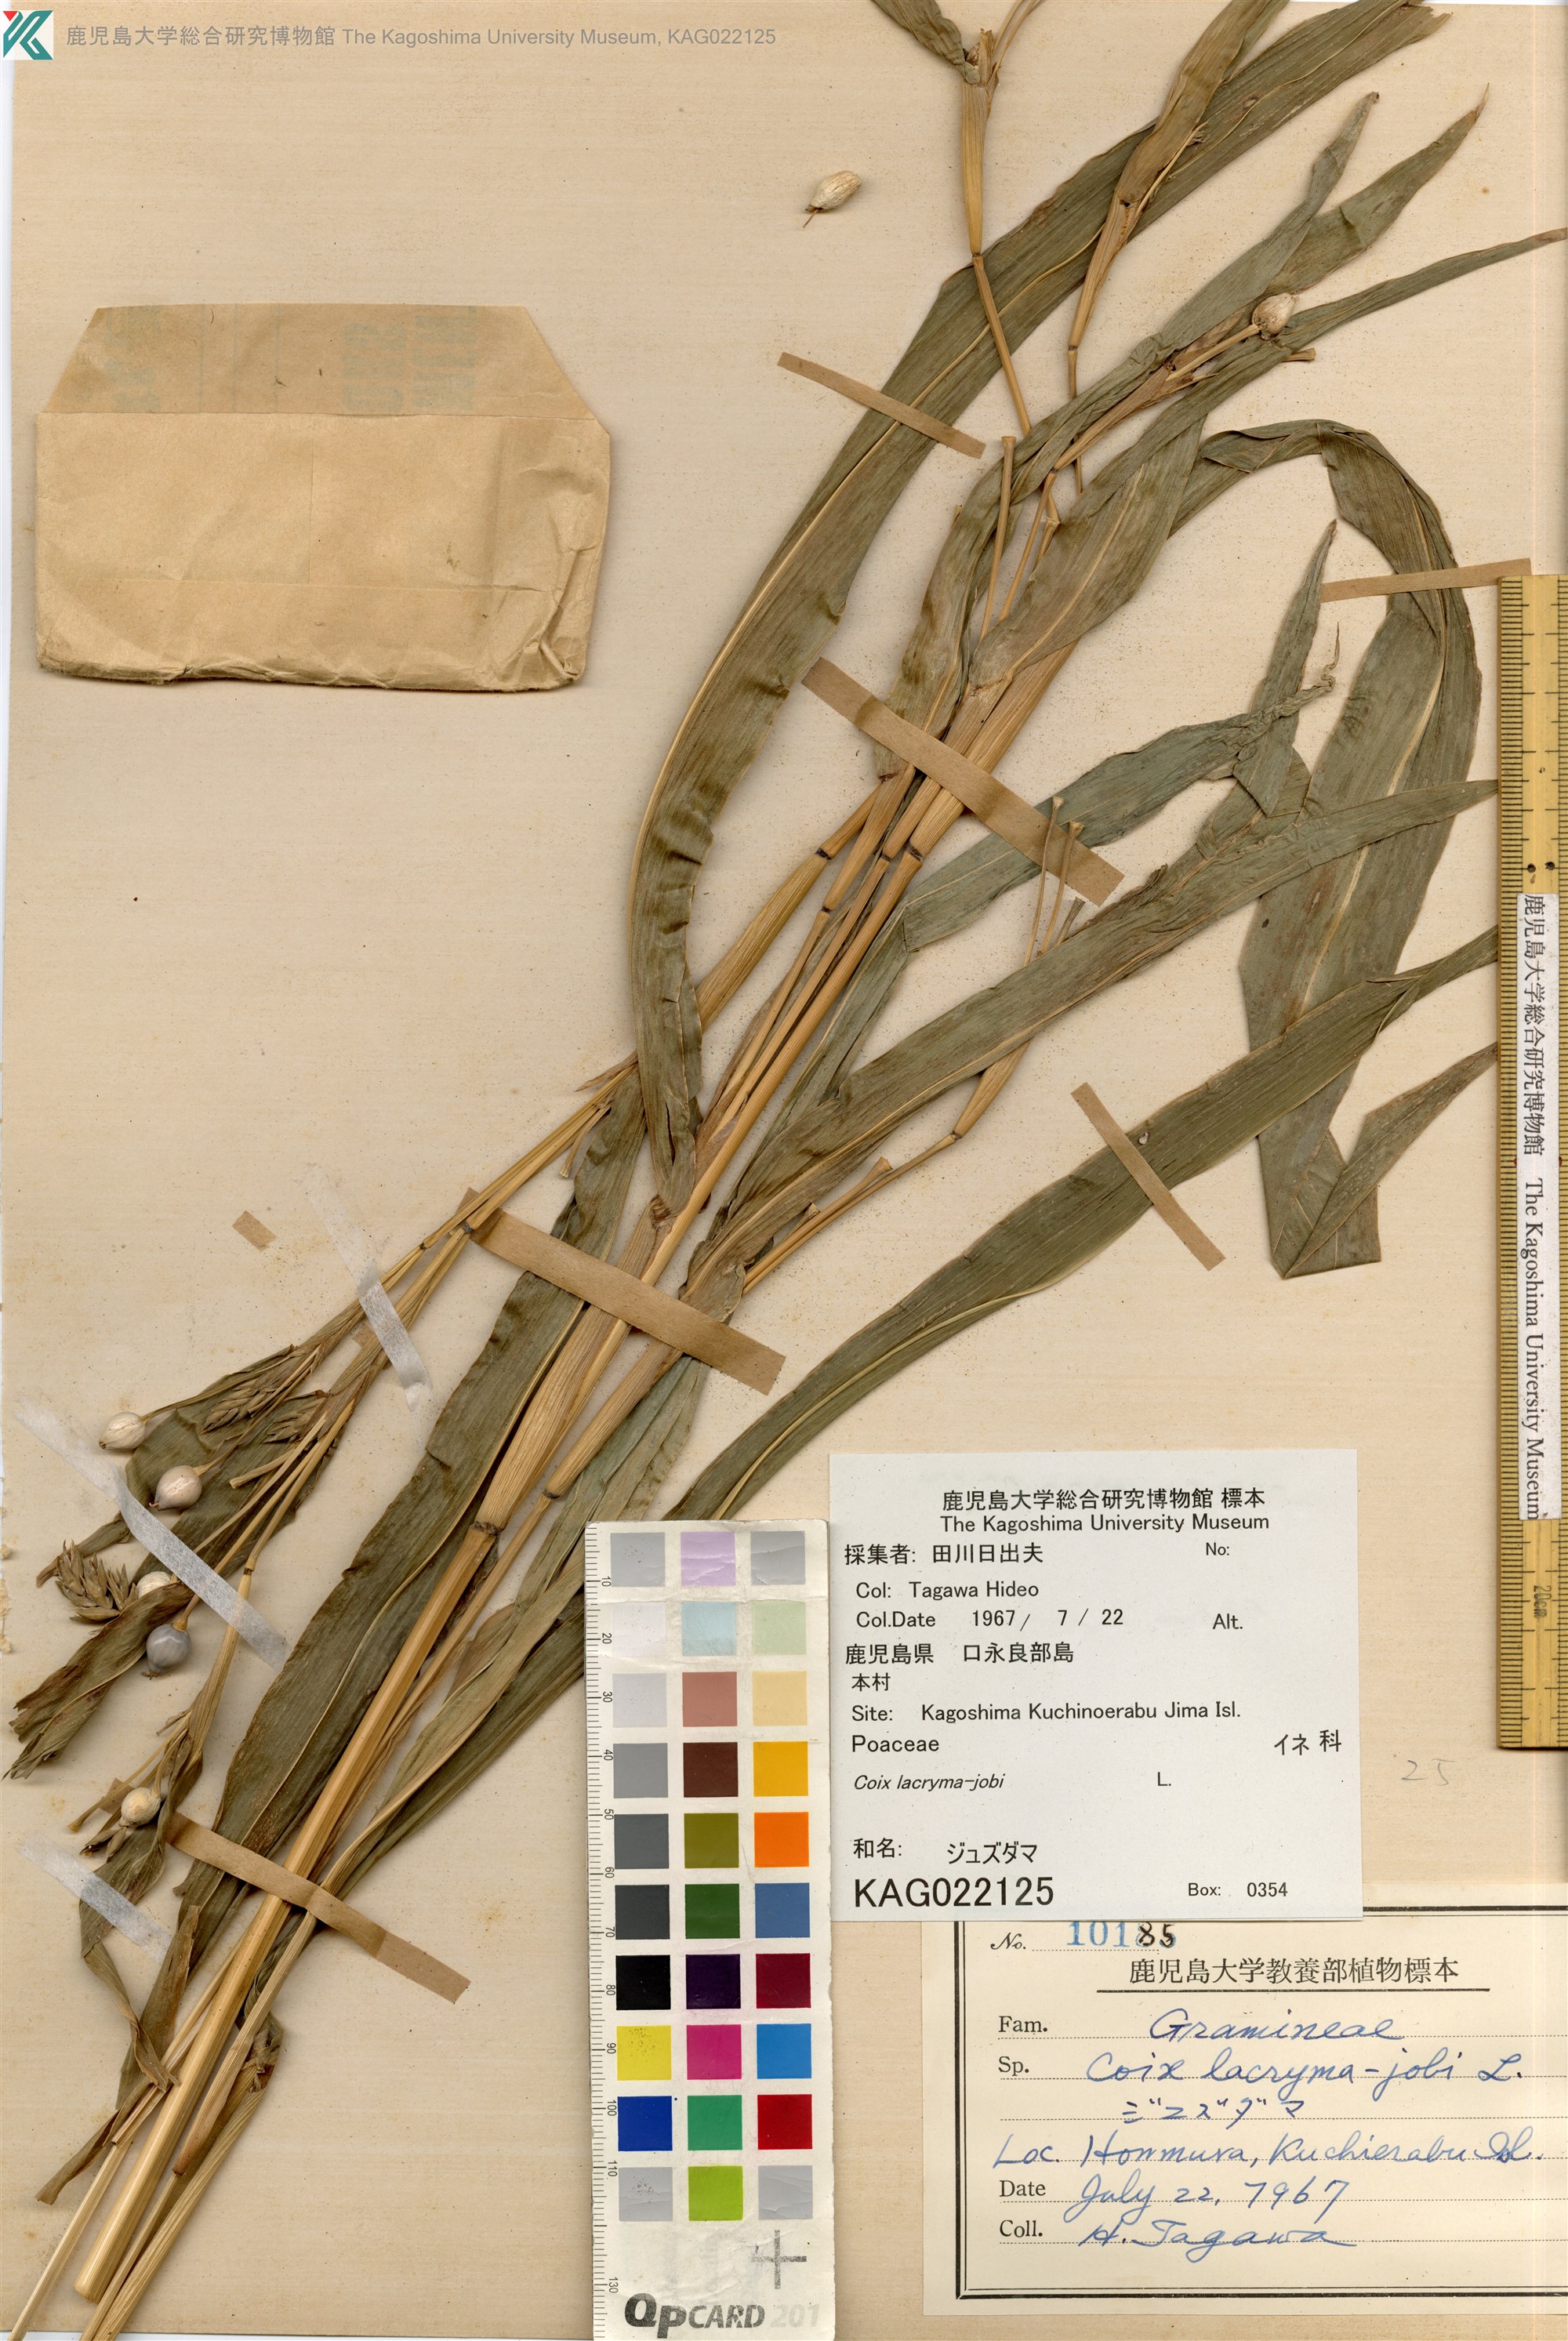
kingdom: Plantae
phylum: Tracheophyta
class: Liliopsida
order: Poales
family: Poaceae
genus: Coix
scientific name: Coix lacryma-jobi
